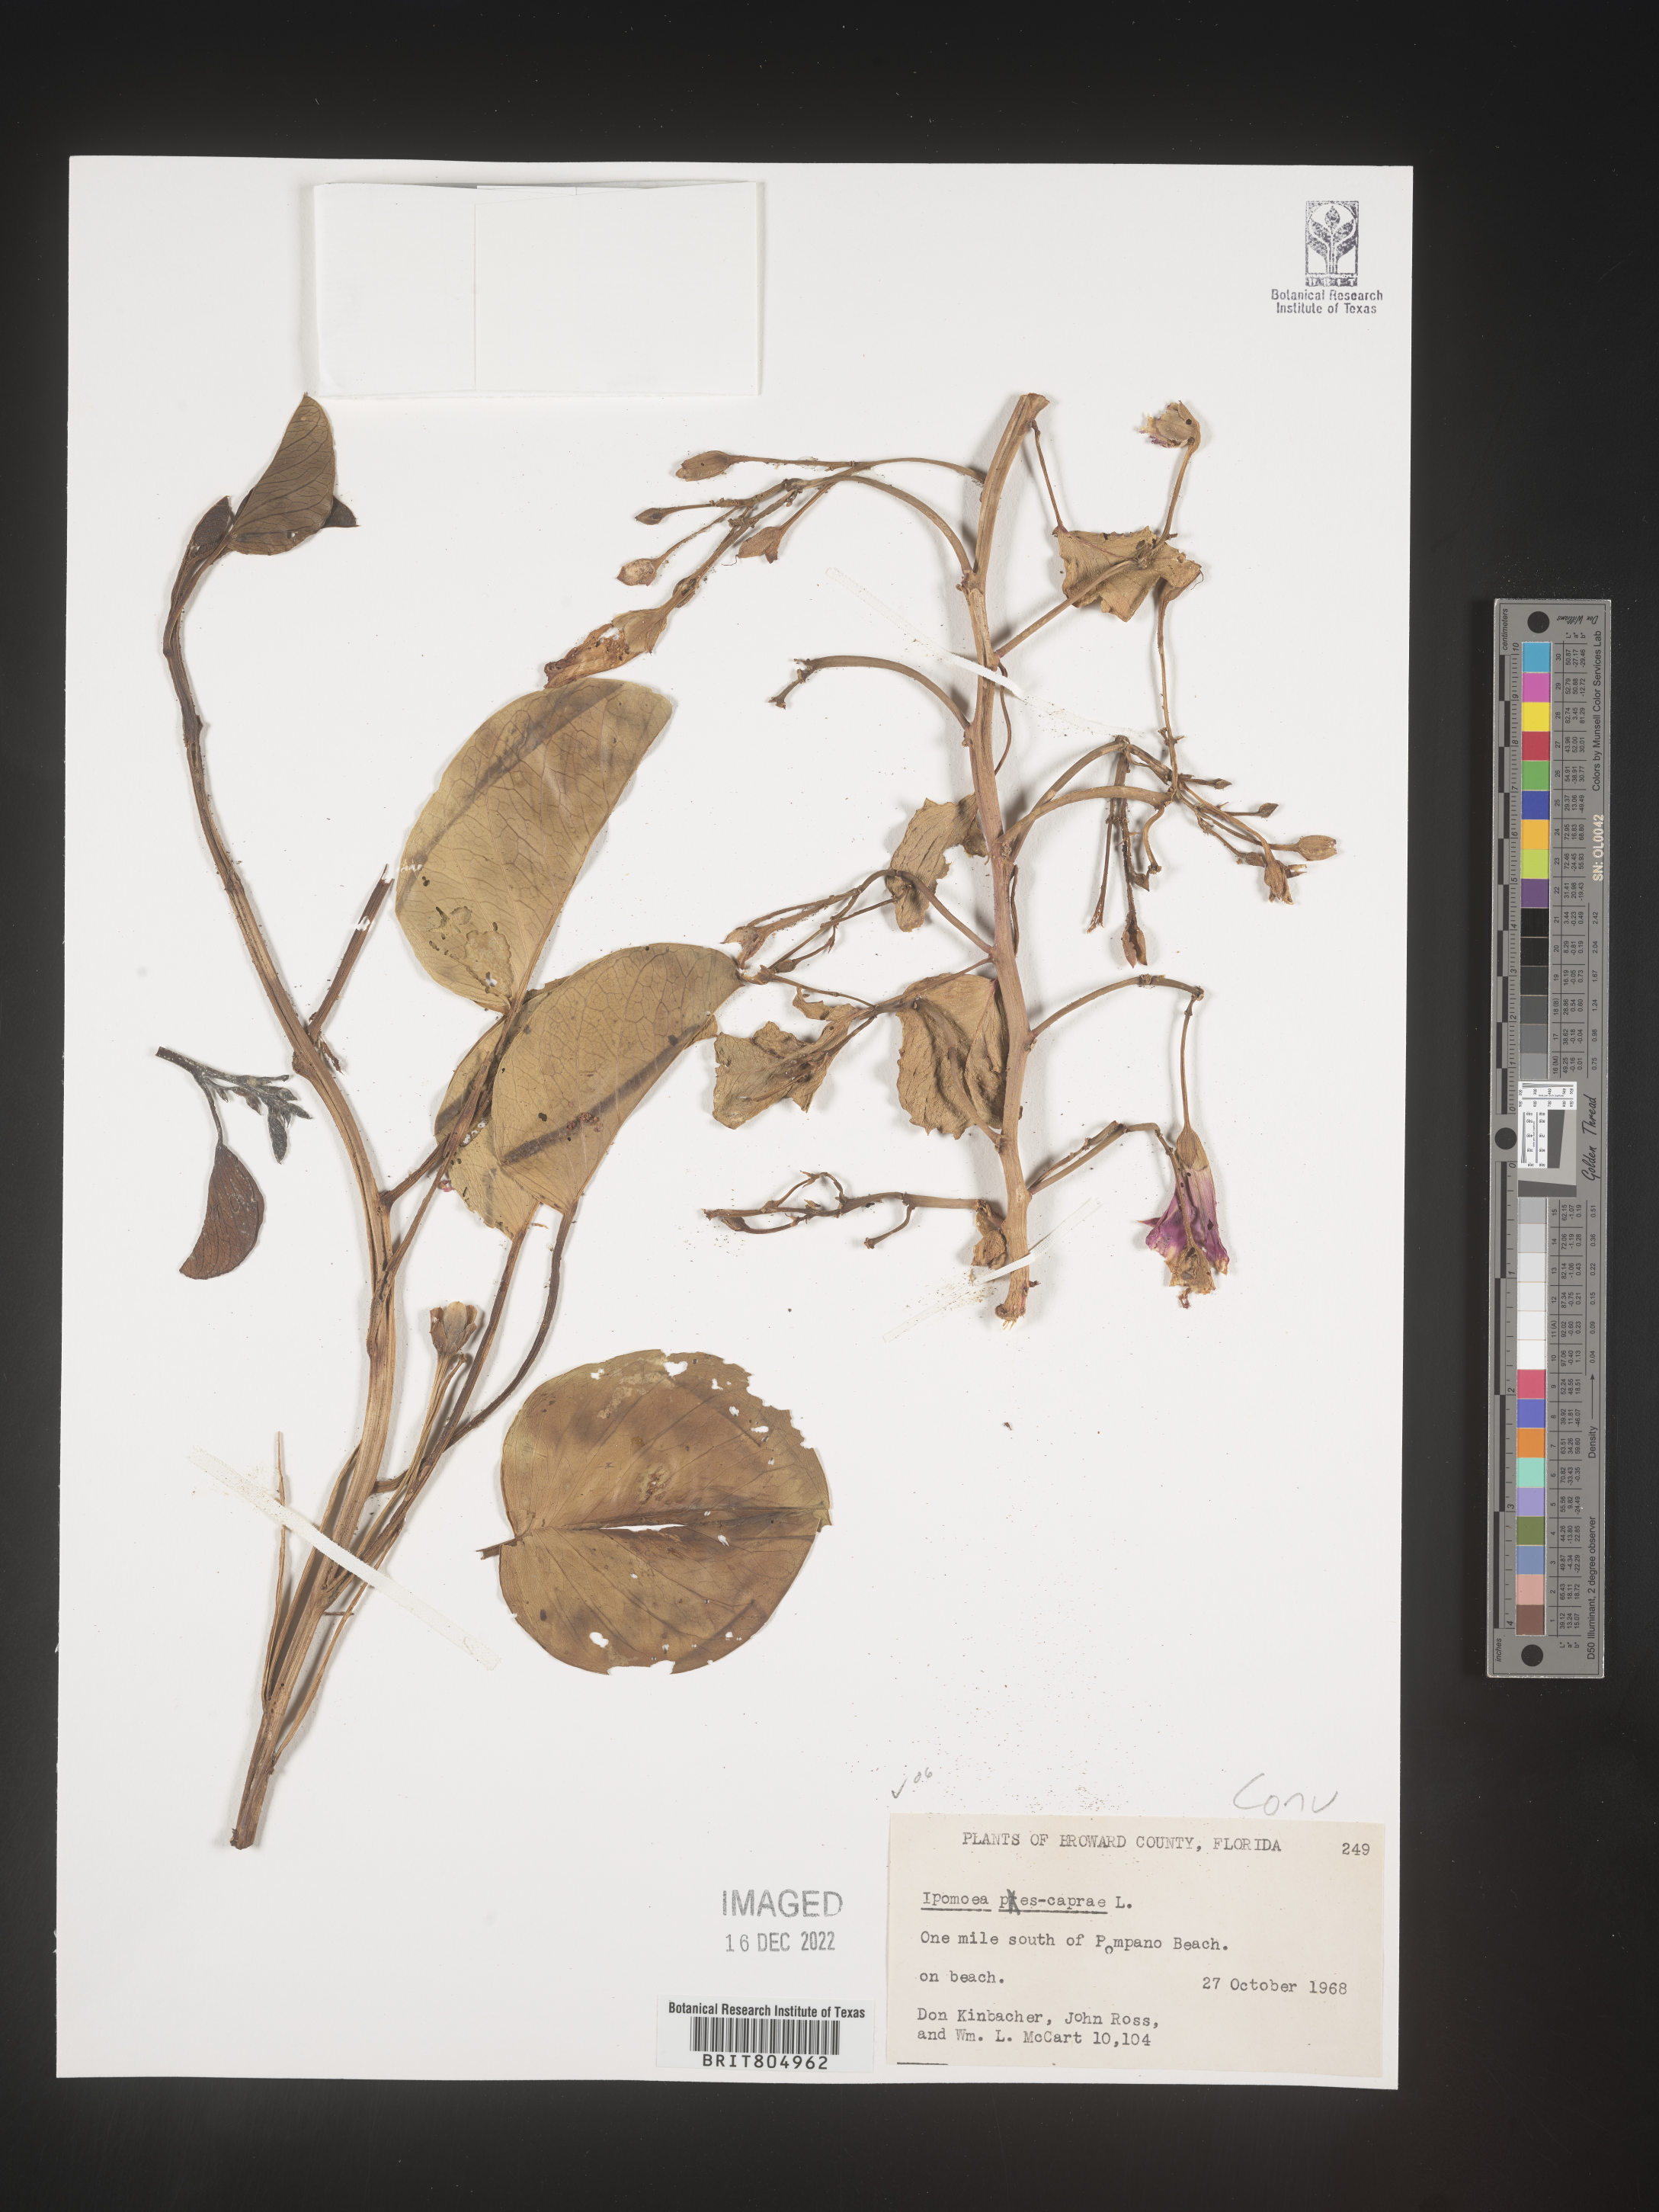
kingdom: Plantae
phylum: Tracheophyta
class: Magnoliopsida
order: Solanales
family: Convolvulaceae
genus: Ipomoea
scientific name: Ipomoea pes-caprae
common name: Beach morning glory
